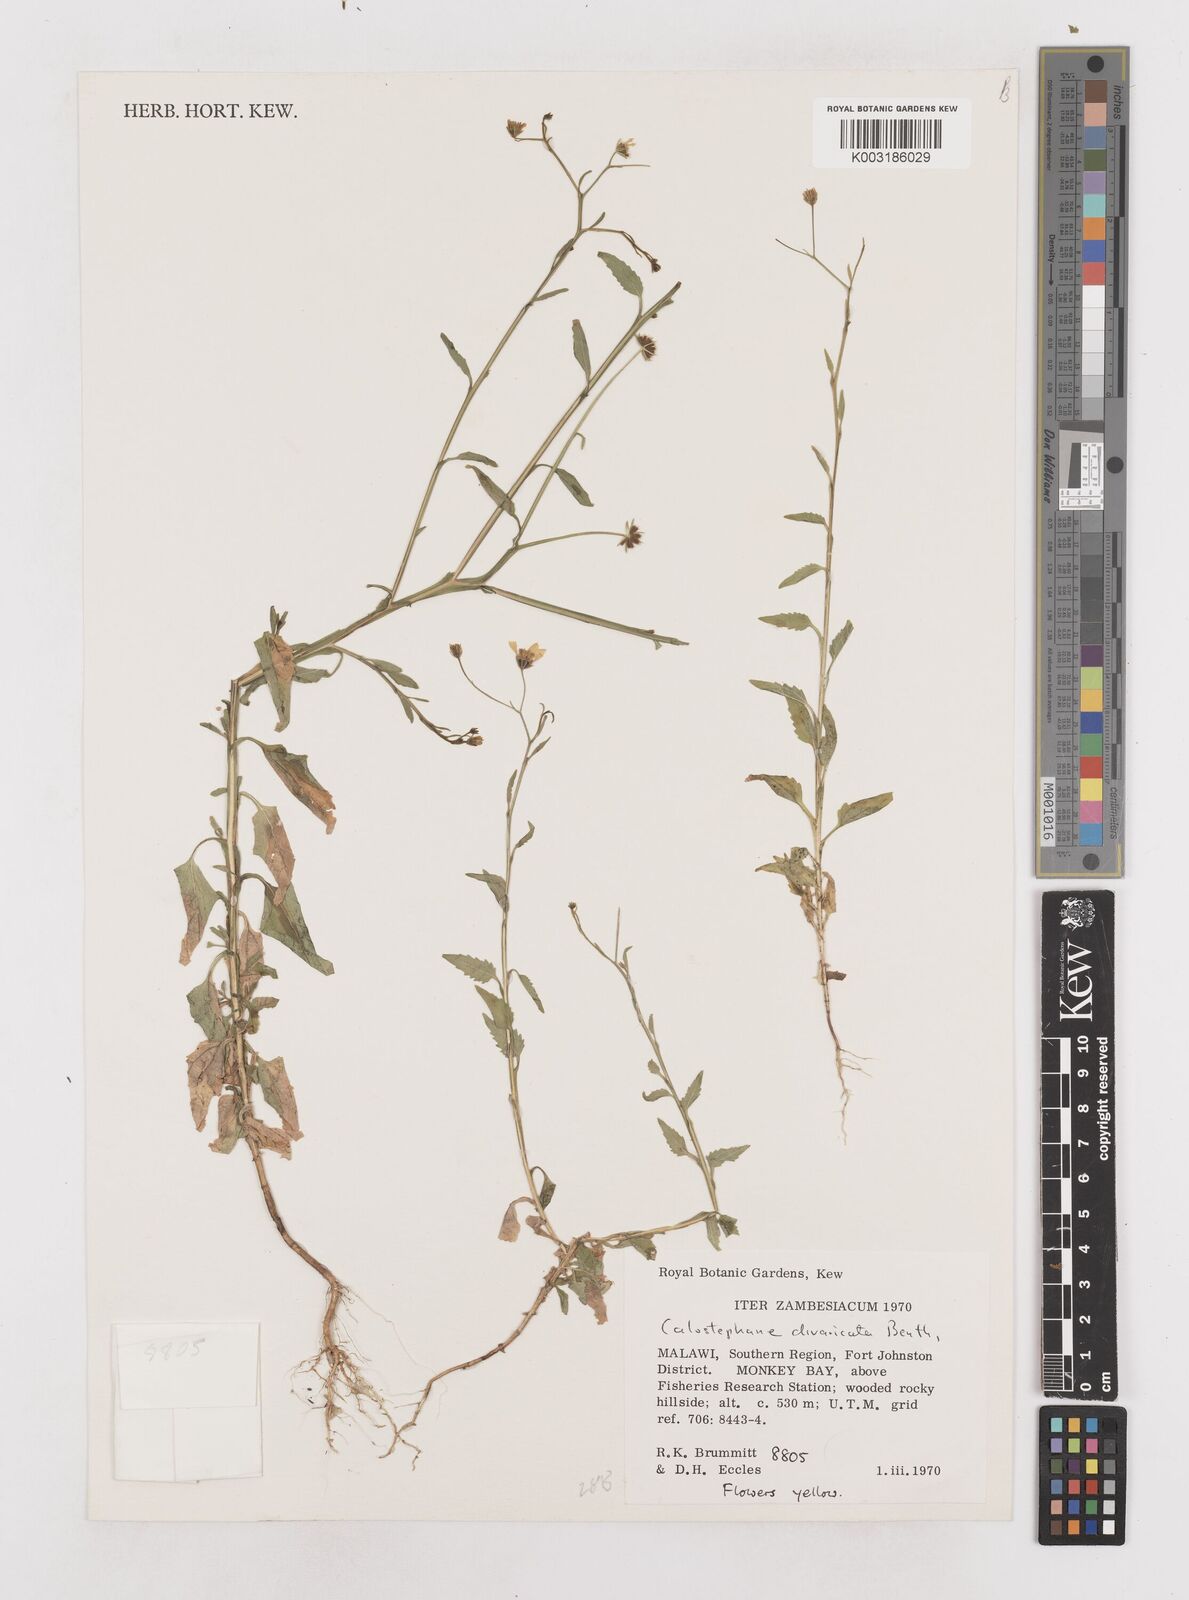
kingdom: Plantae
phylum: Tracheophyta
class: Magnoliopsida
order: Asterales
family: Asteraceae
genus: Calostephane
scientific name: Calostephane divaricata
